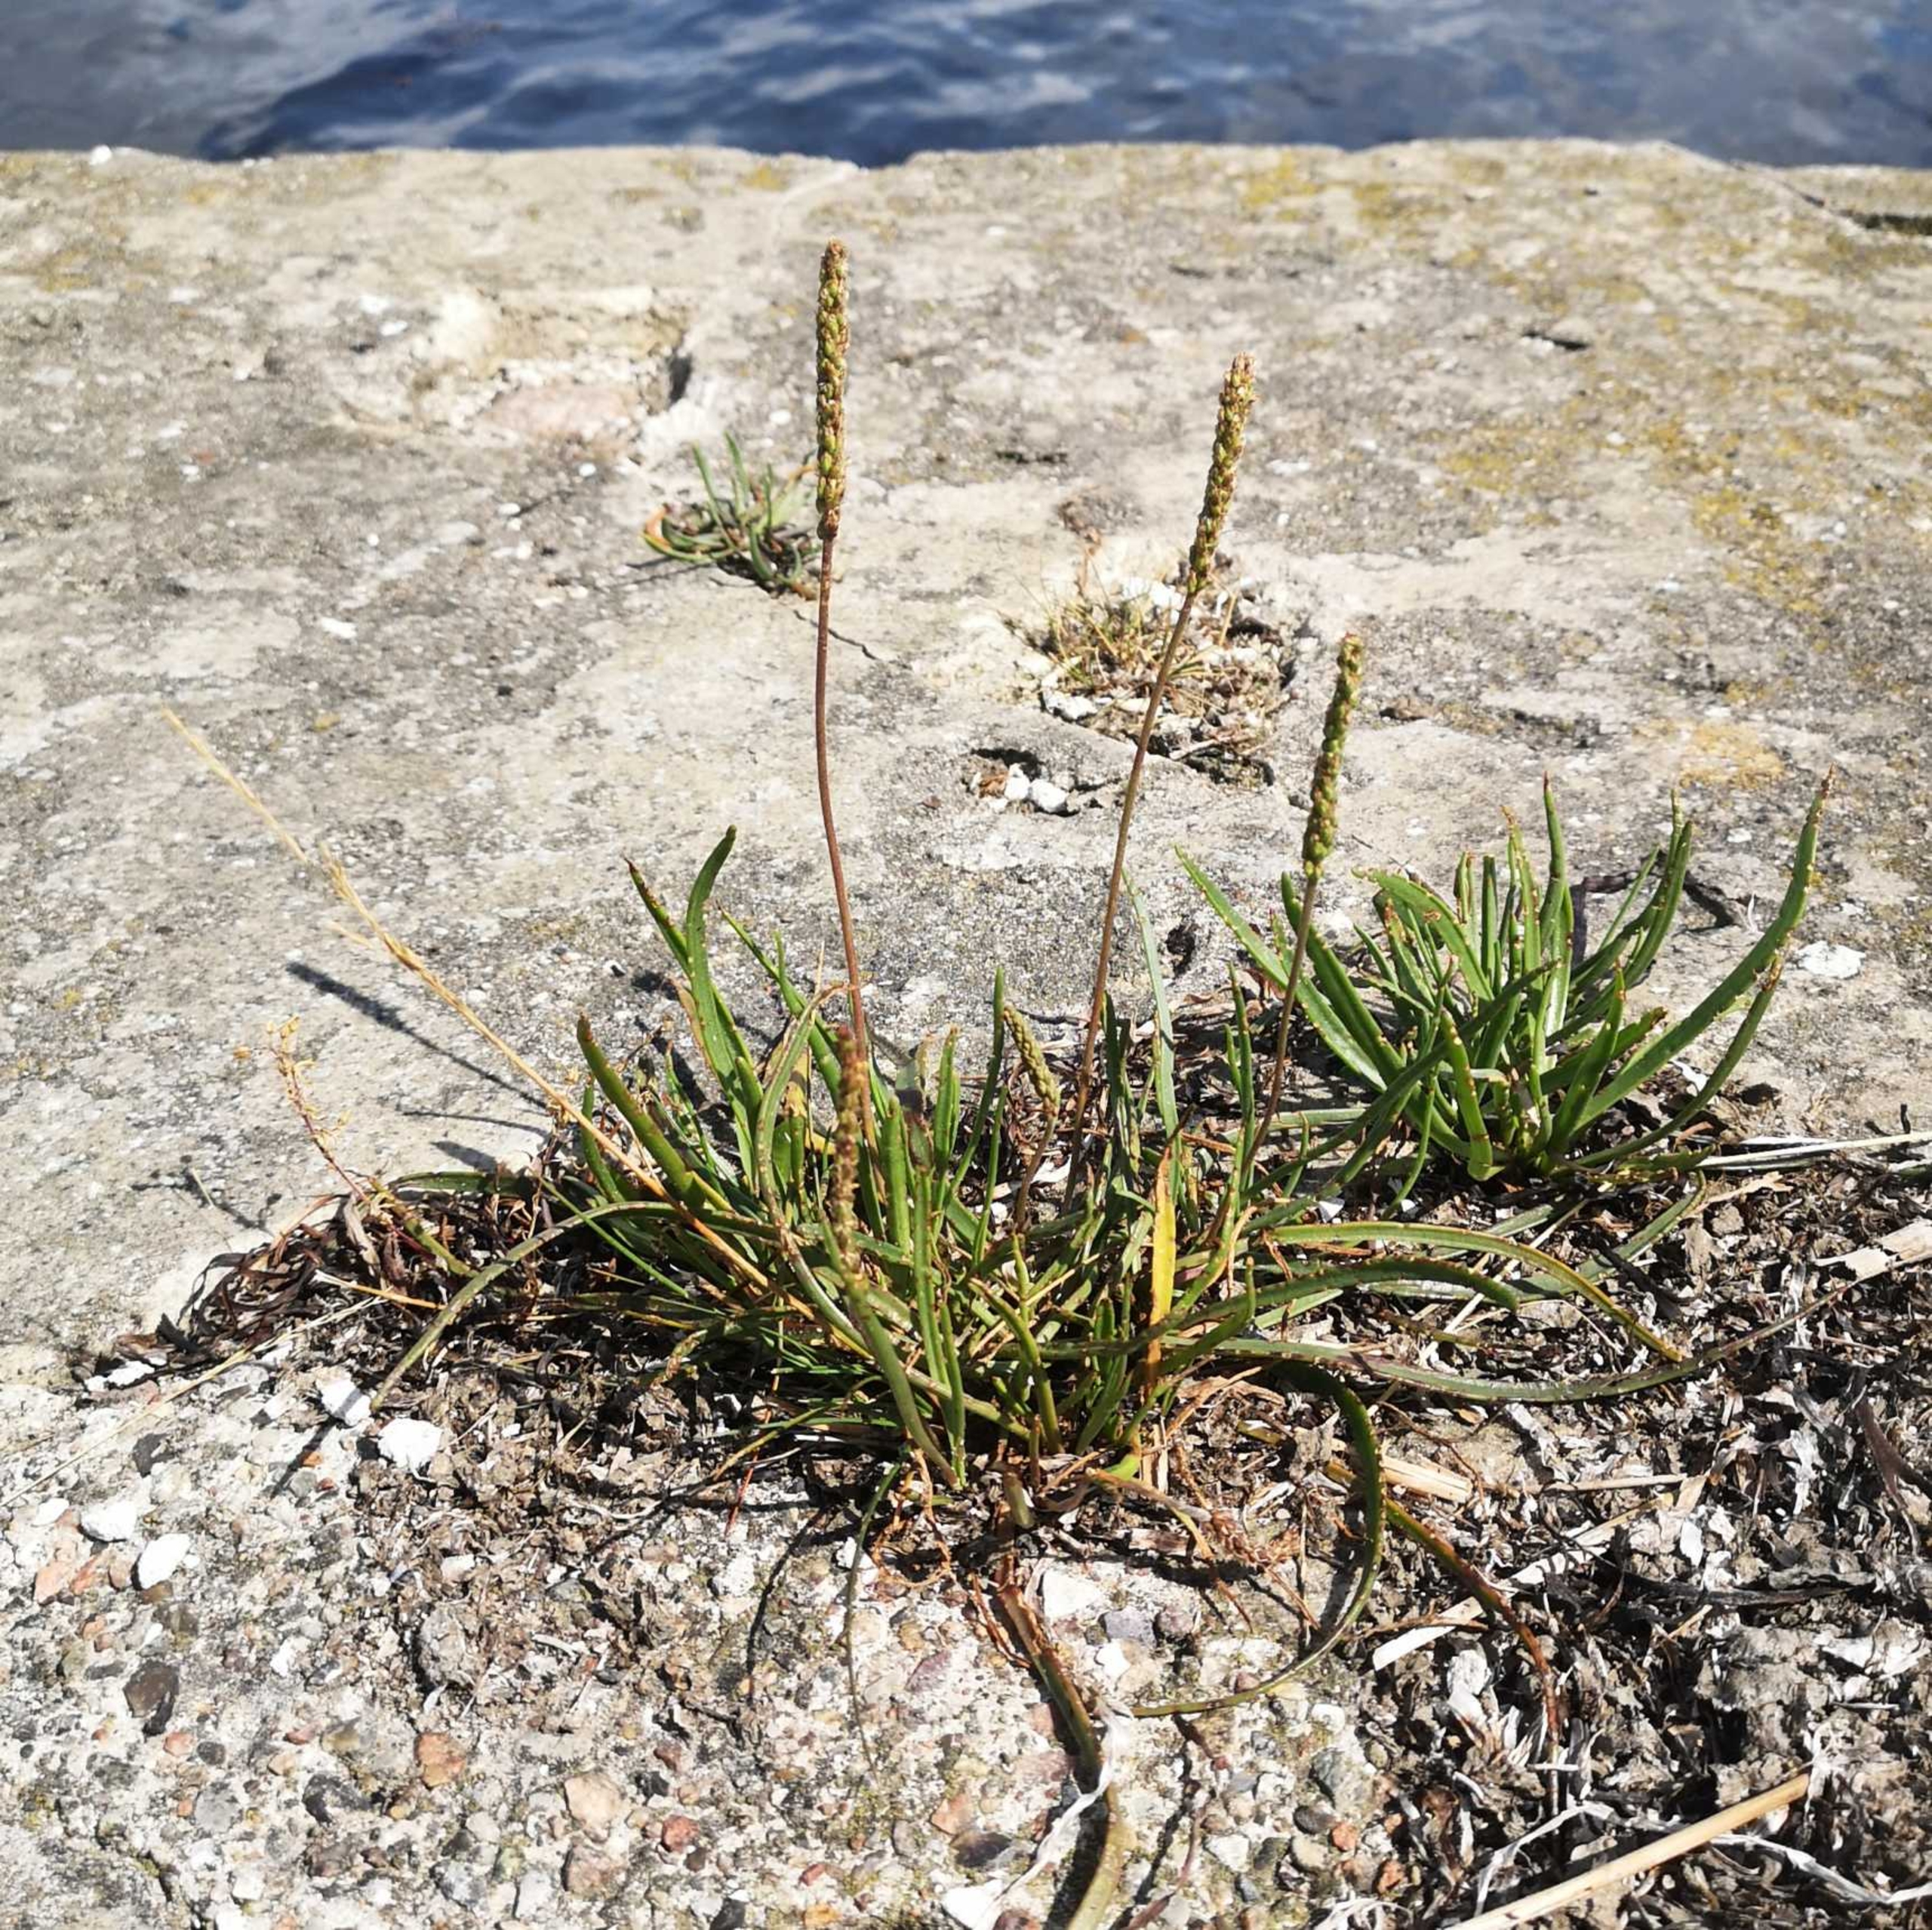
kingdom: Plantae
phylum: Tracheophyta
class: Magnoliopsida
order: Lamiales
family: Plantaginaceae
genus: Plantago
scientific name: Plantago maritima
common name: Strand-vejbred
